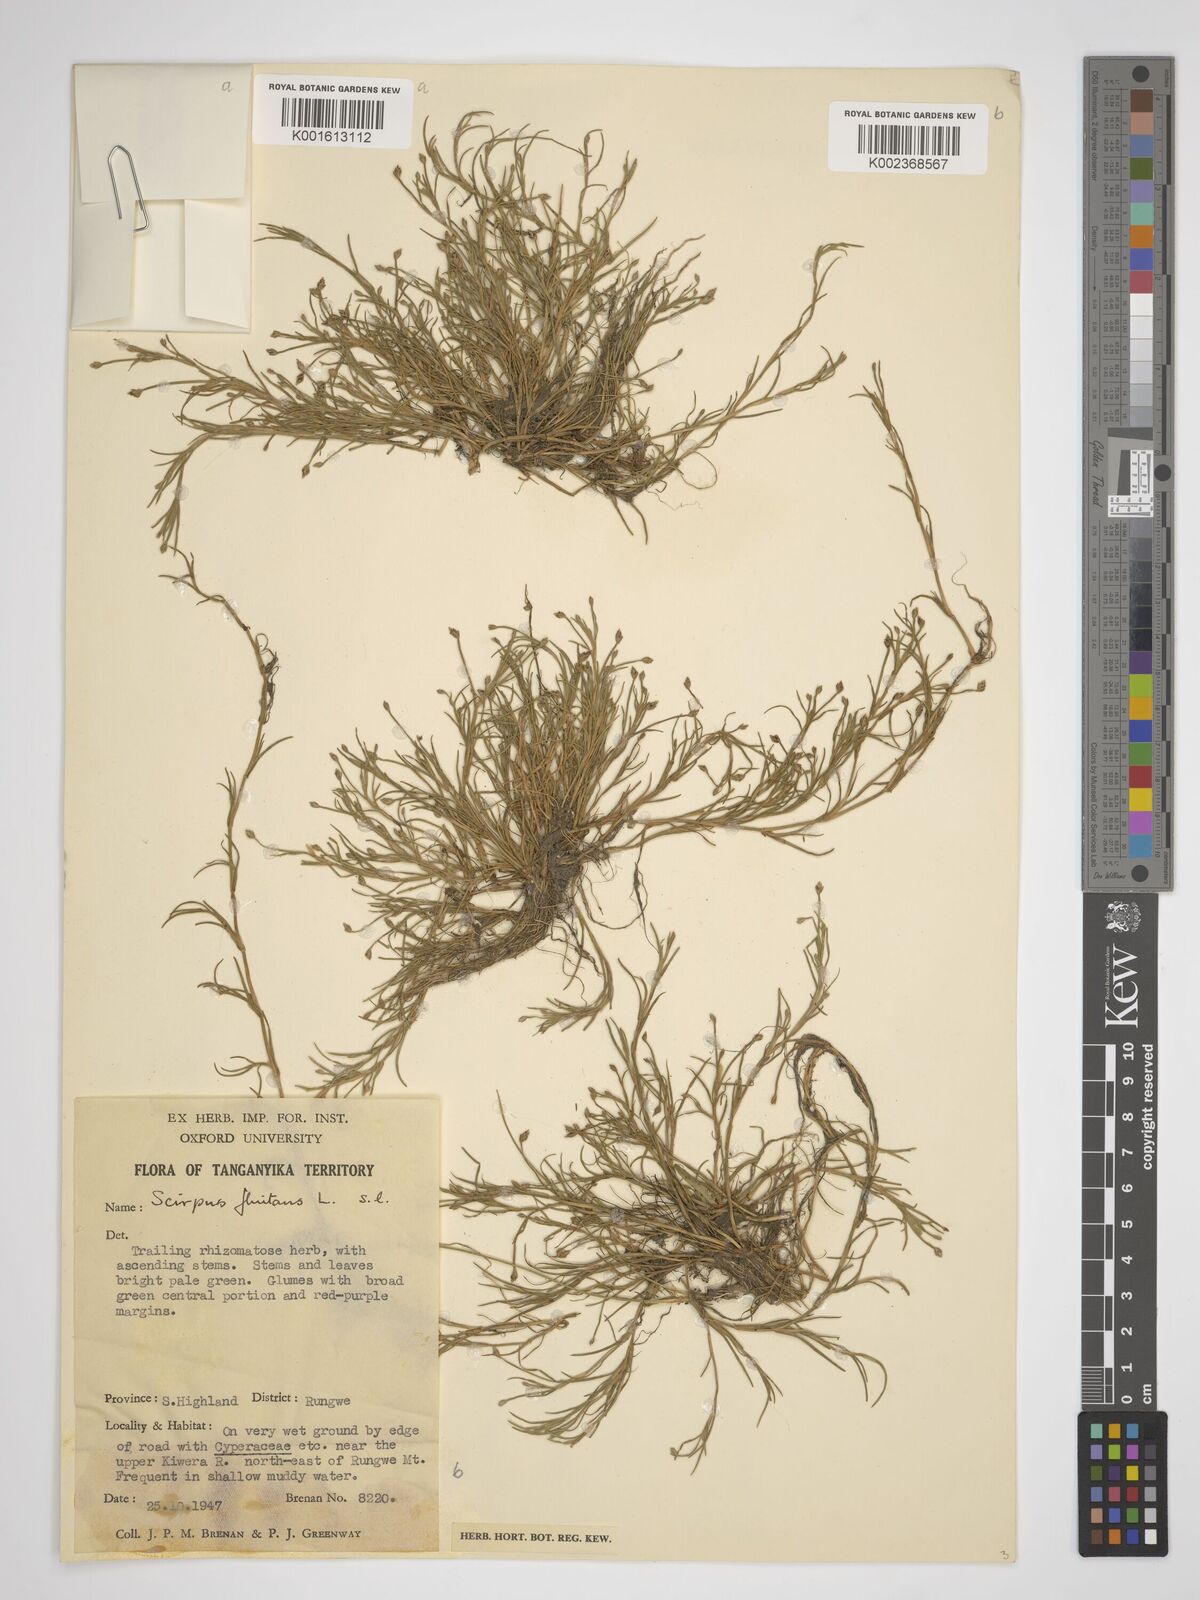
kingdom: Plantae
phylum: Tracheophyta
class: Liliopsida
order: Poales
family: Cyperaceae
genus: Isolepis
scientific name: Isolepis fluitans
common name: Floating club-rush
